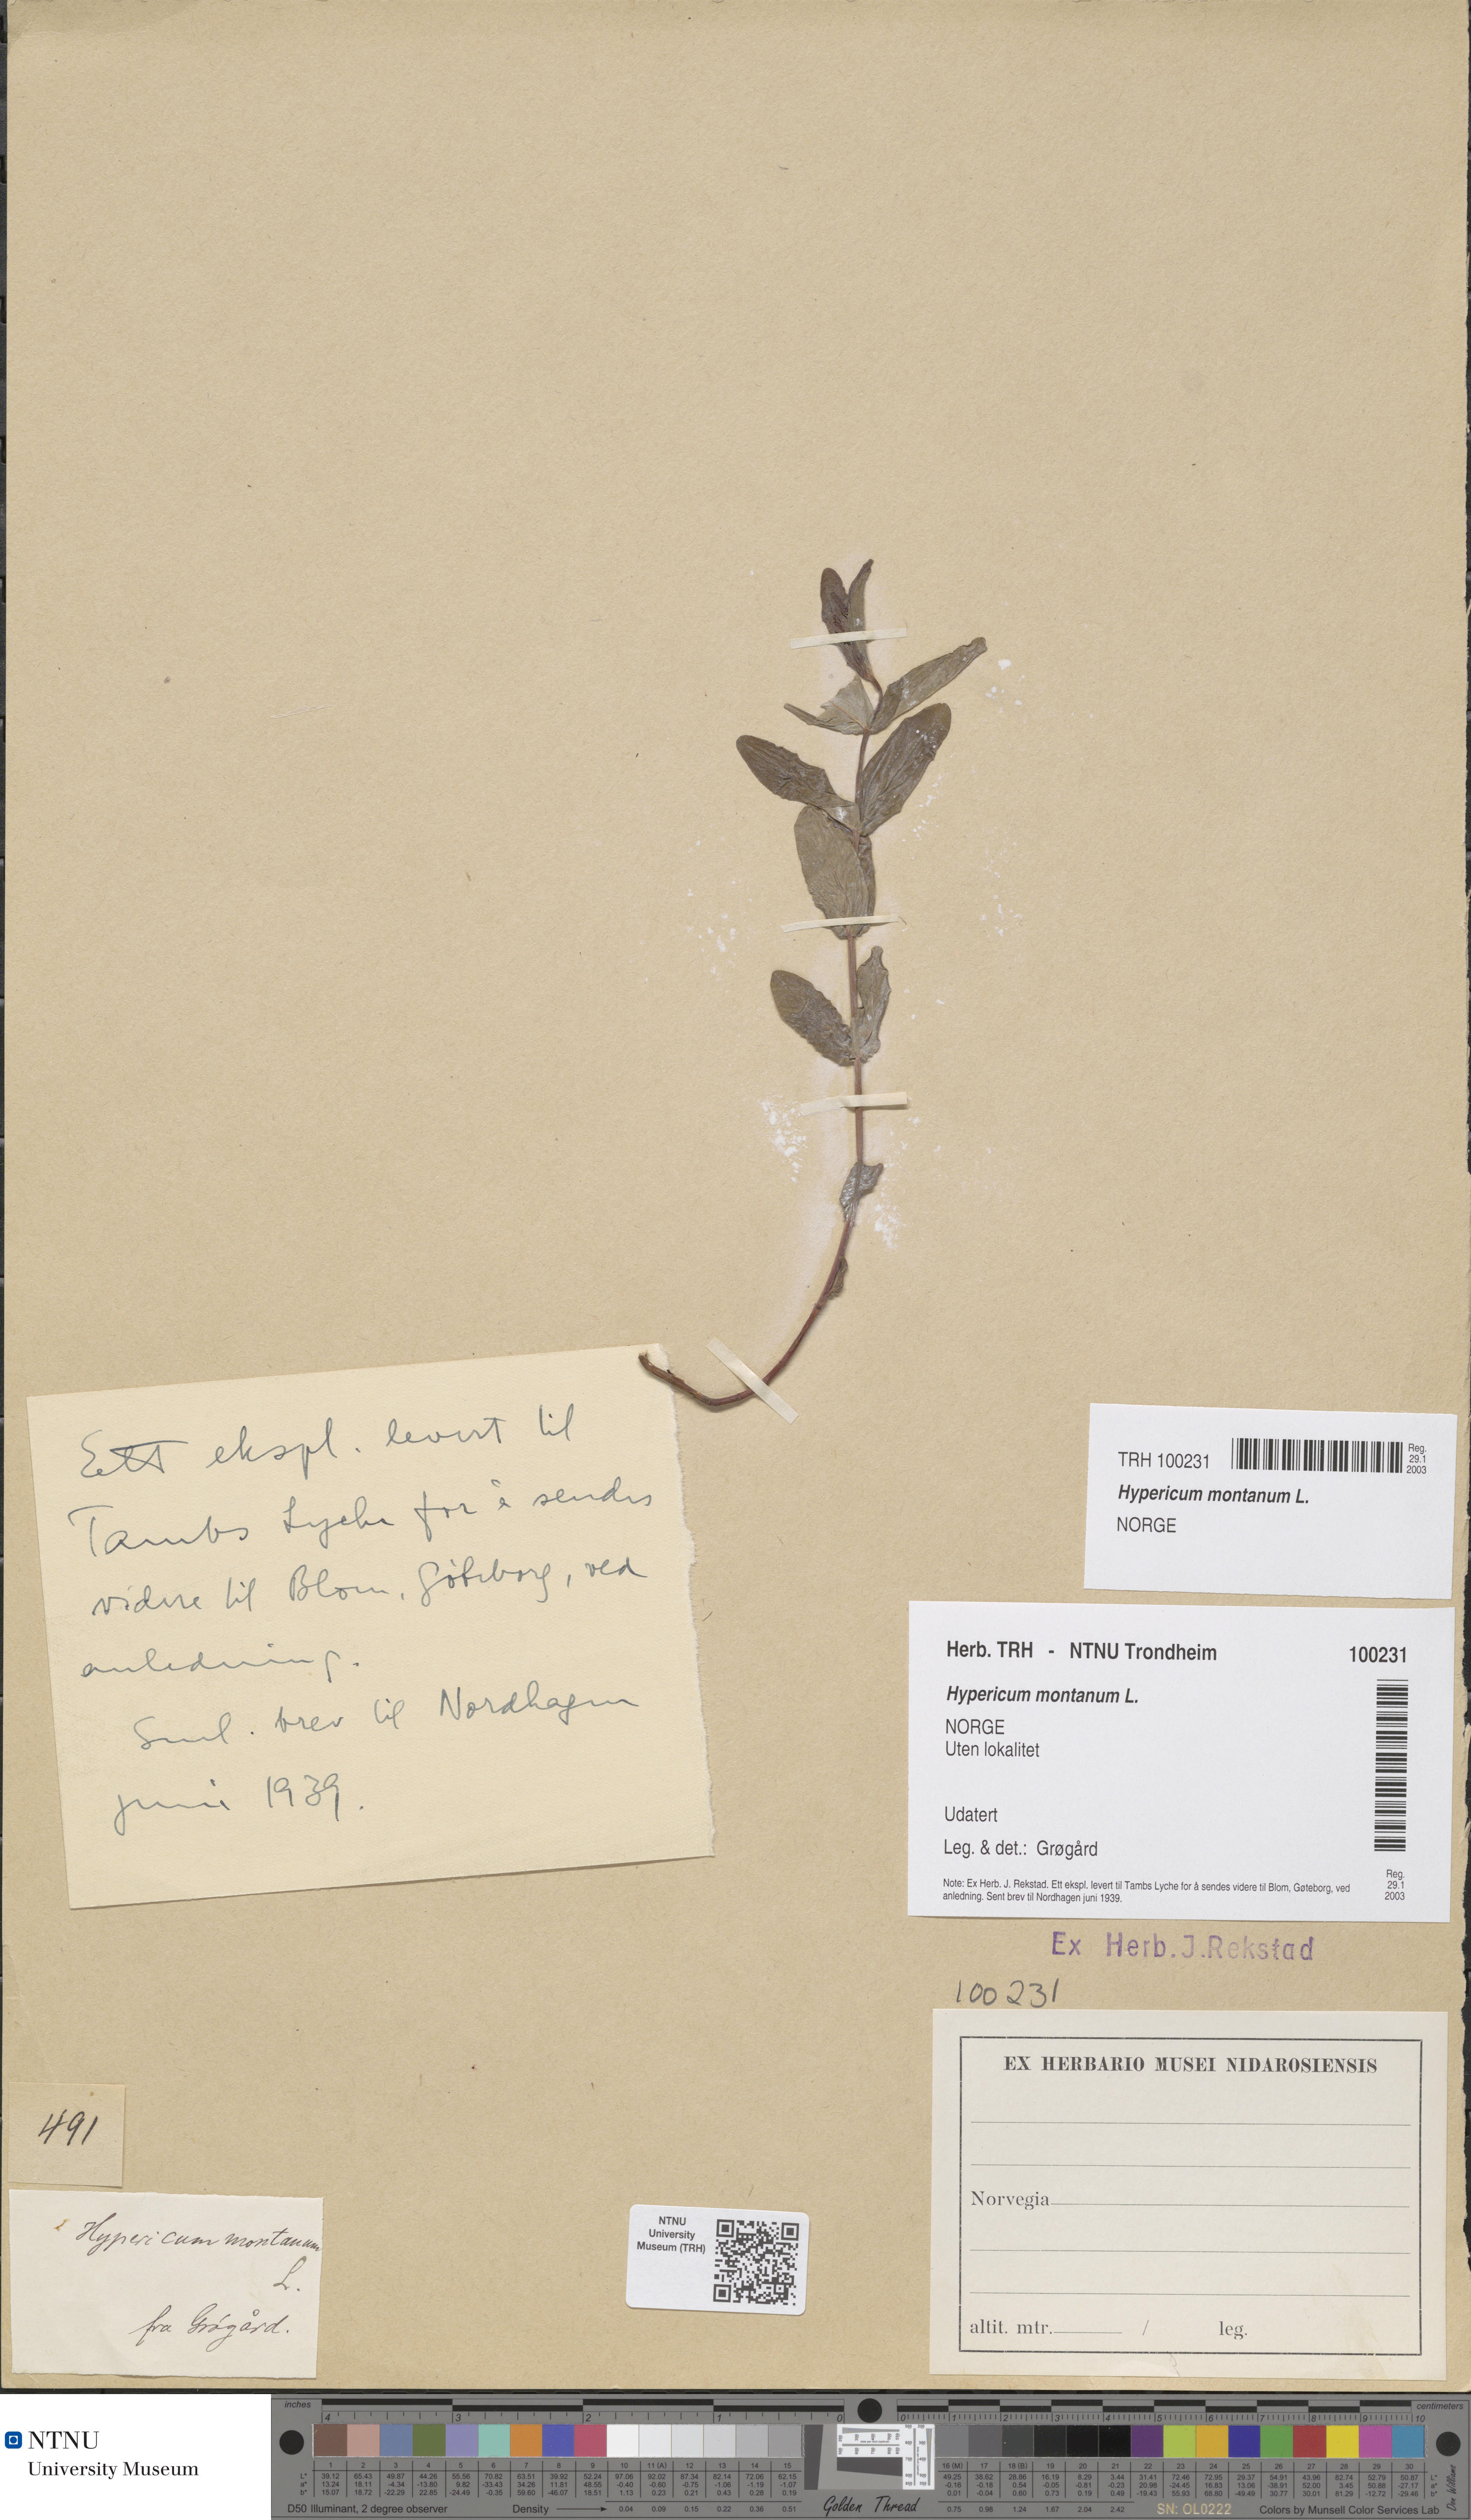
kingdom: Plantae
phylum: Tracheophyta
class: Magnoliopsida
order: Malpighiales
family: Hypericaceae
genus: Hypericum
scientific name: Hypericum montanum
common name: Pale st. john's-wort
